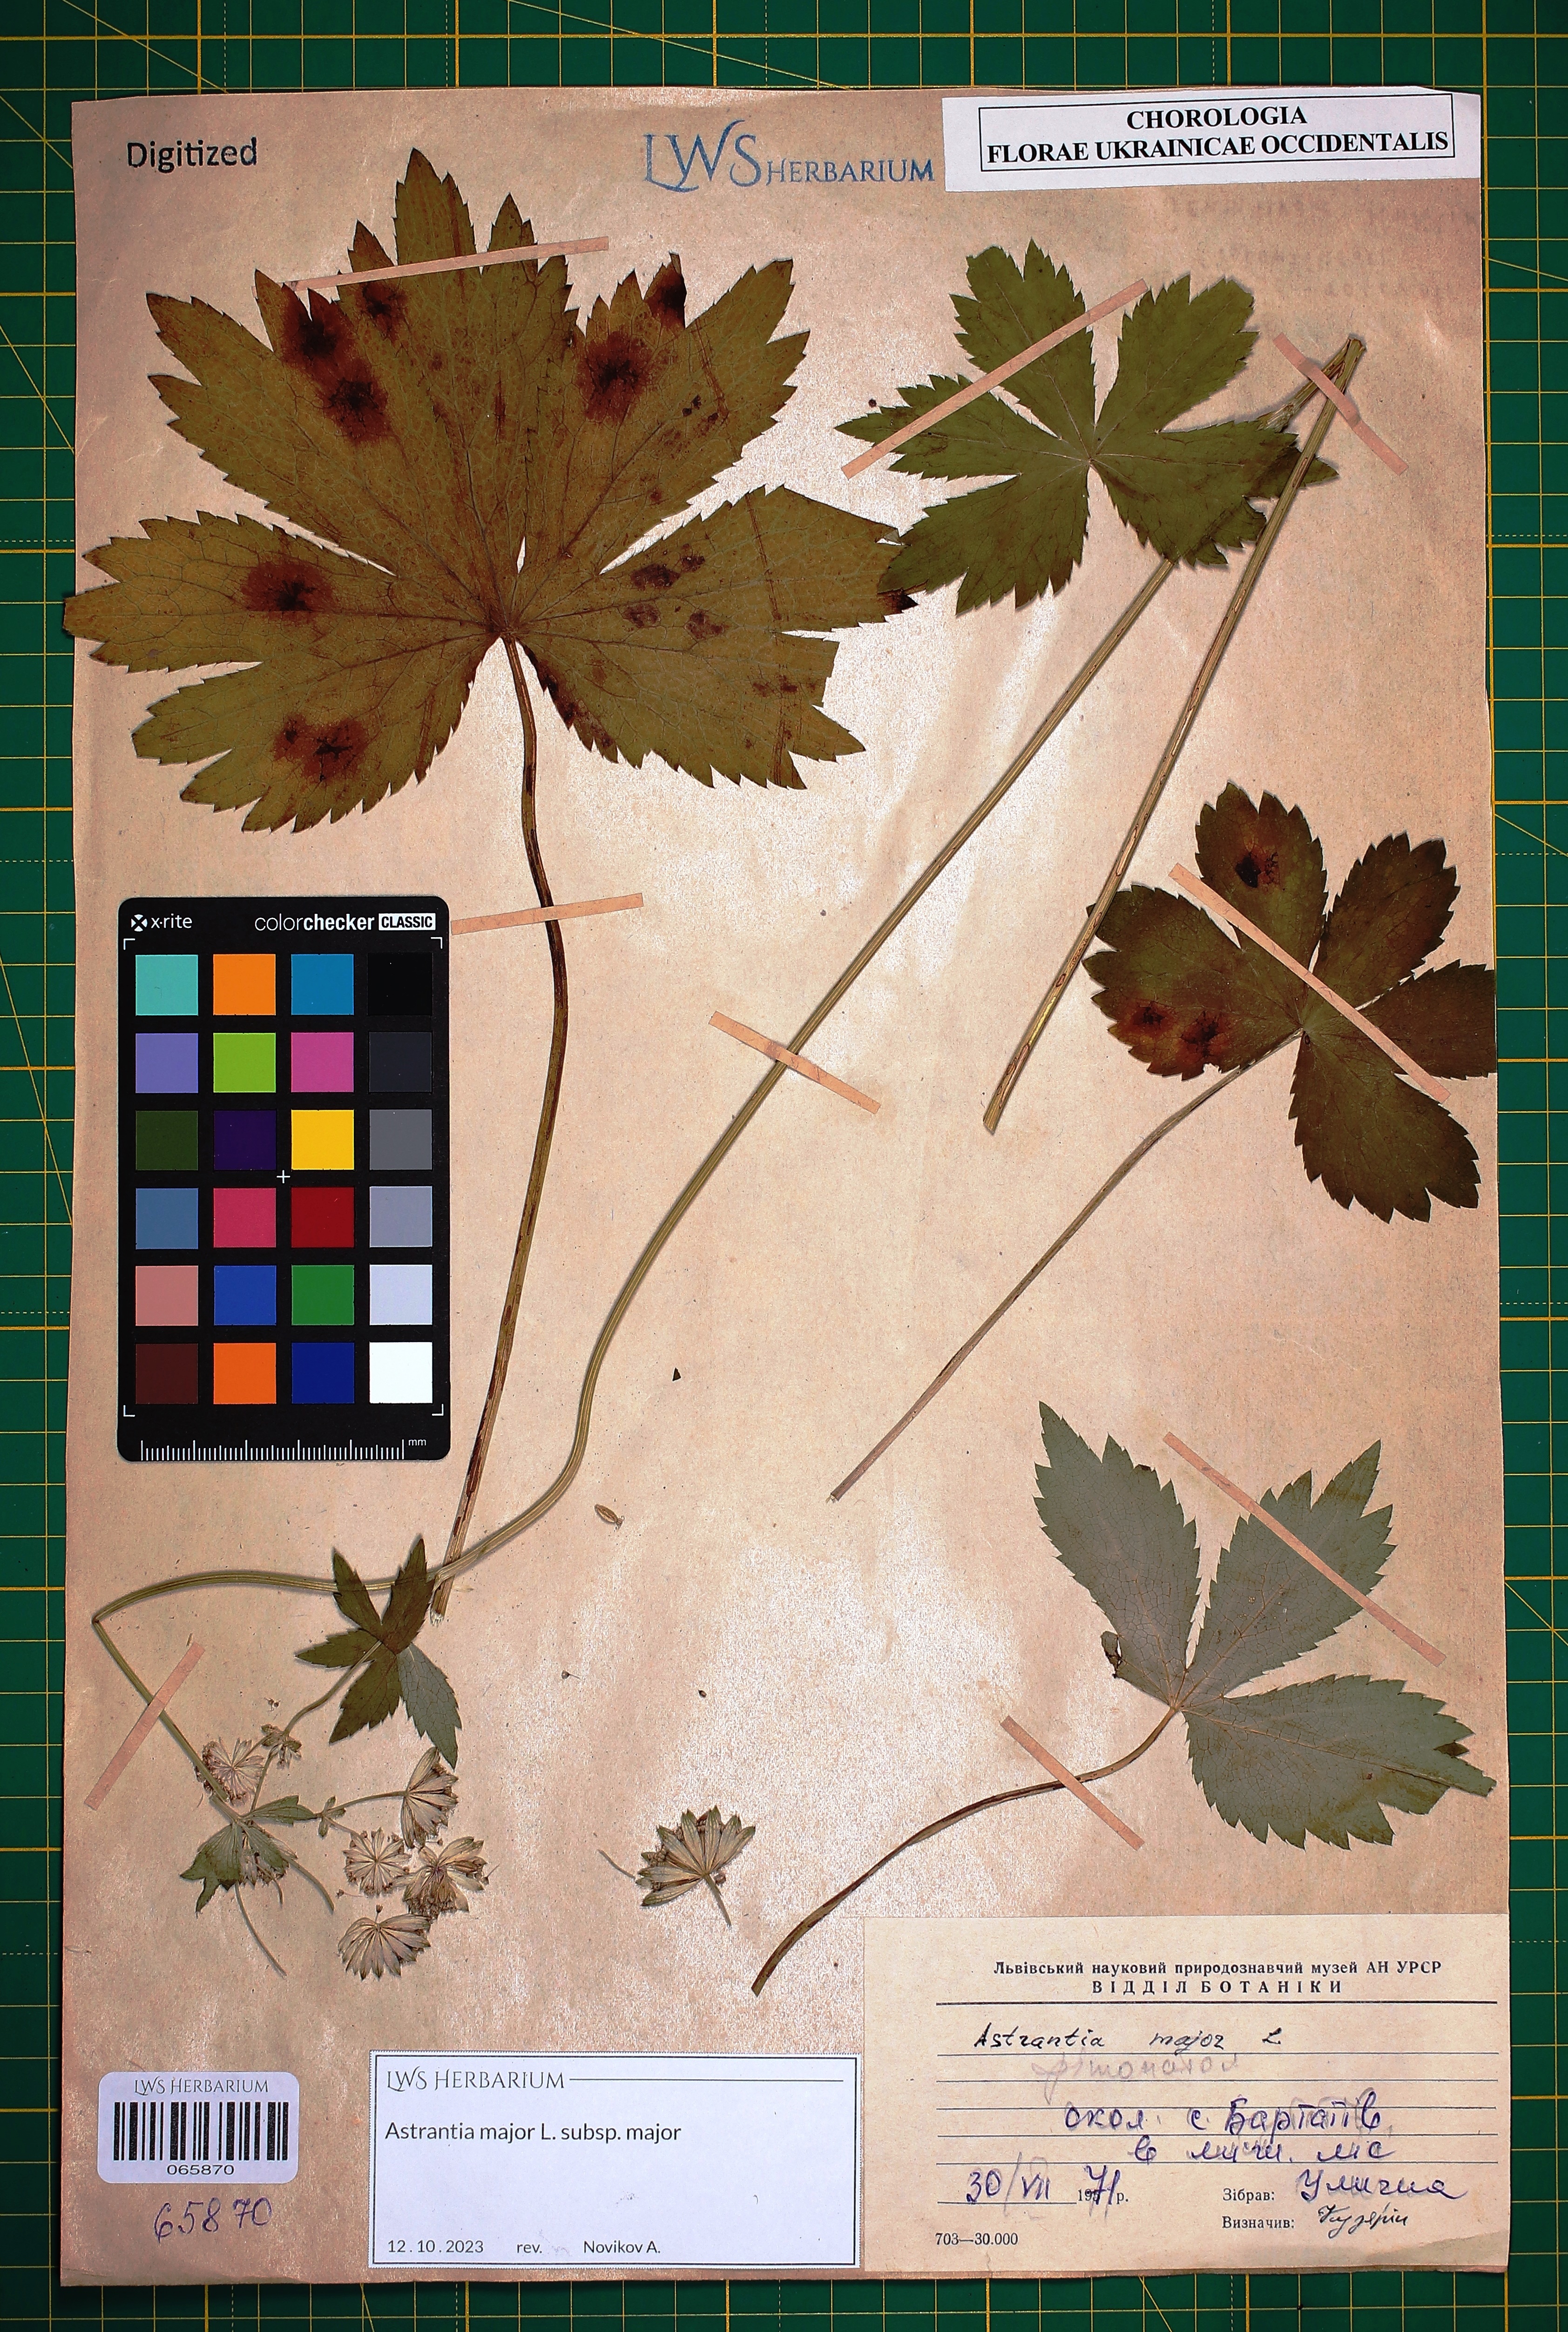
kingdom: Plantae
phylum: Tracheophyta
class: Magnoliopsida
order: Apiales
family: Apiaceae
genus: Astrantia
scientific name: Astrantia major
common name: Greater masterwort
